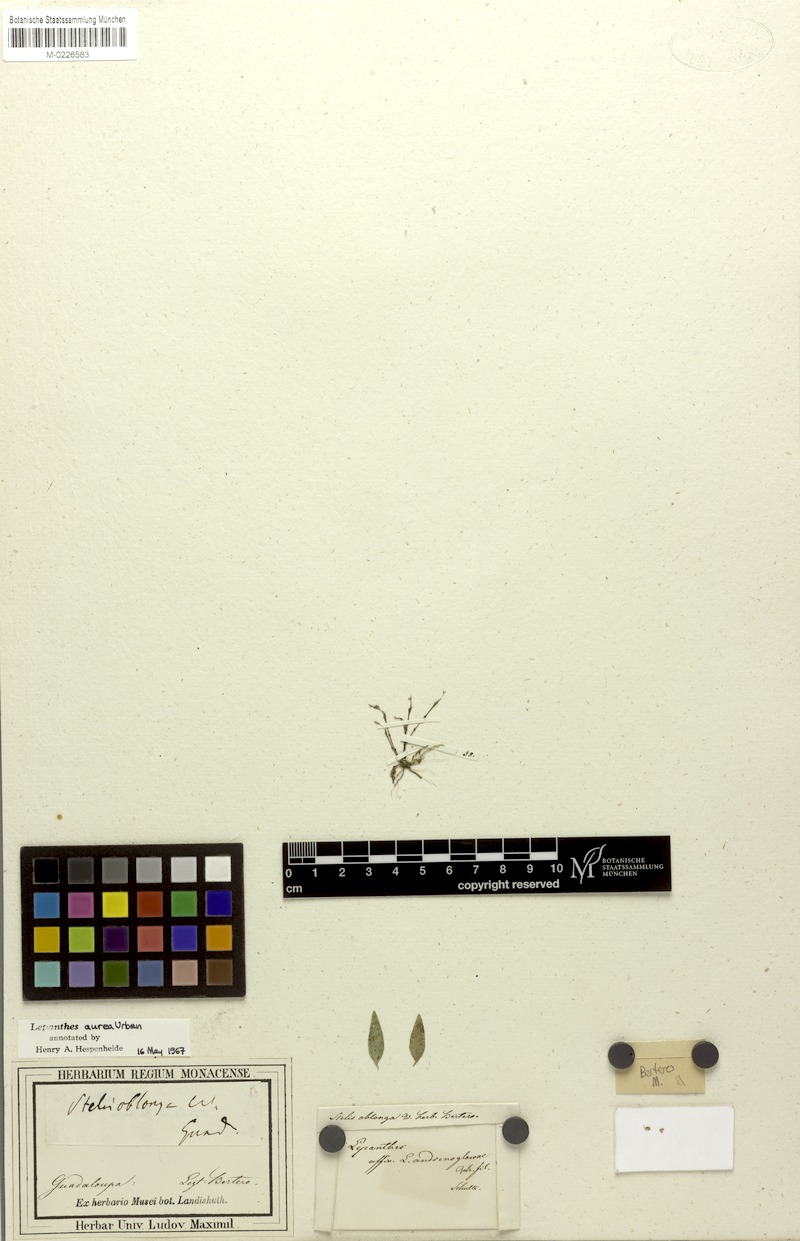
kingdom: Plantae
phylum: Tracheophyta
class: Liliopsida
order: Asparagales
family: Orchidaceae
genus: Lepanthes
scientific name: Lepanthes aurea
